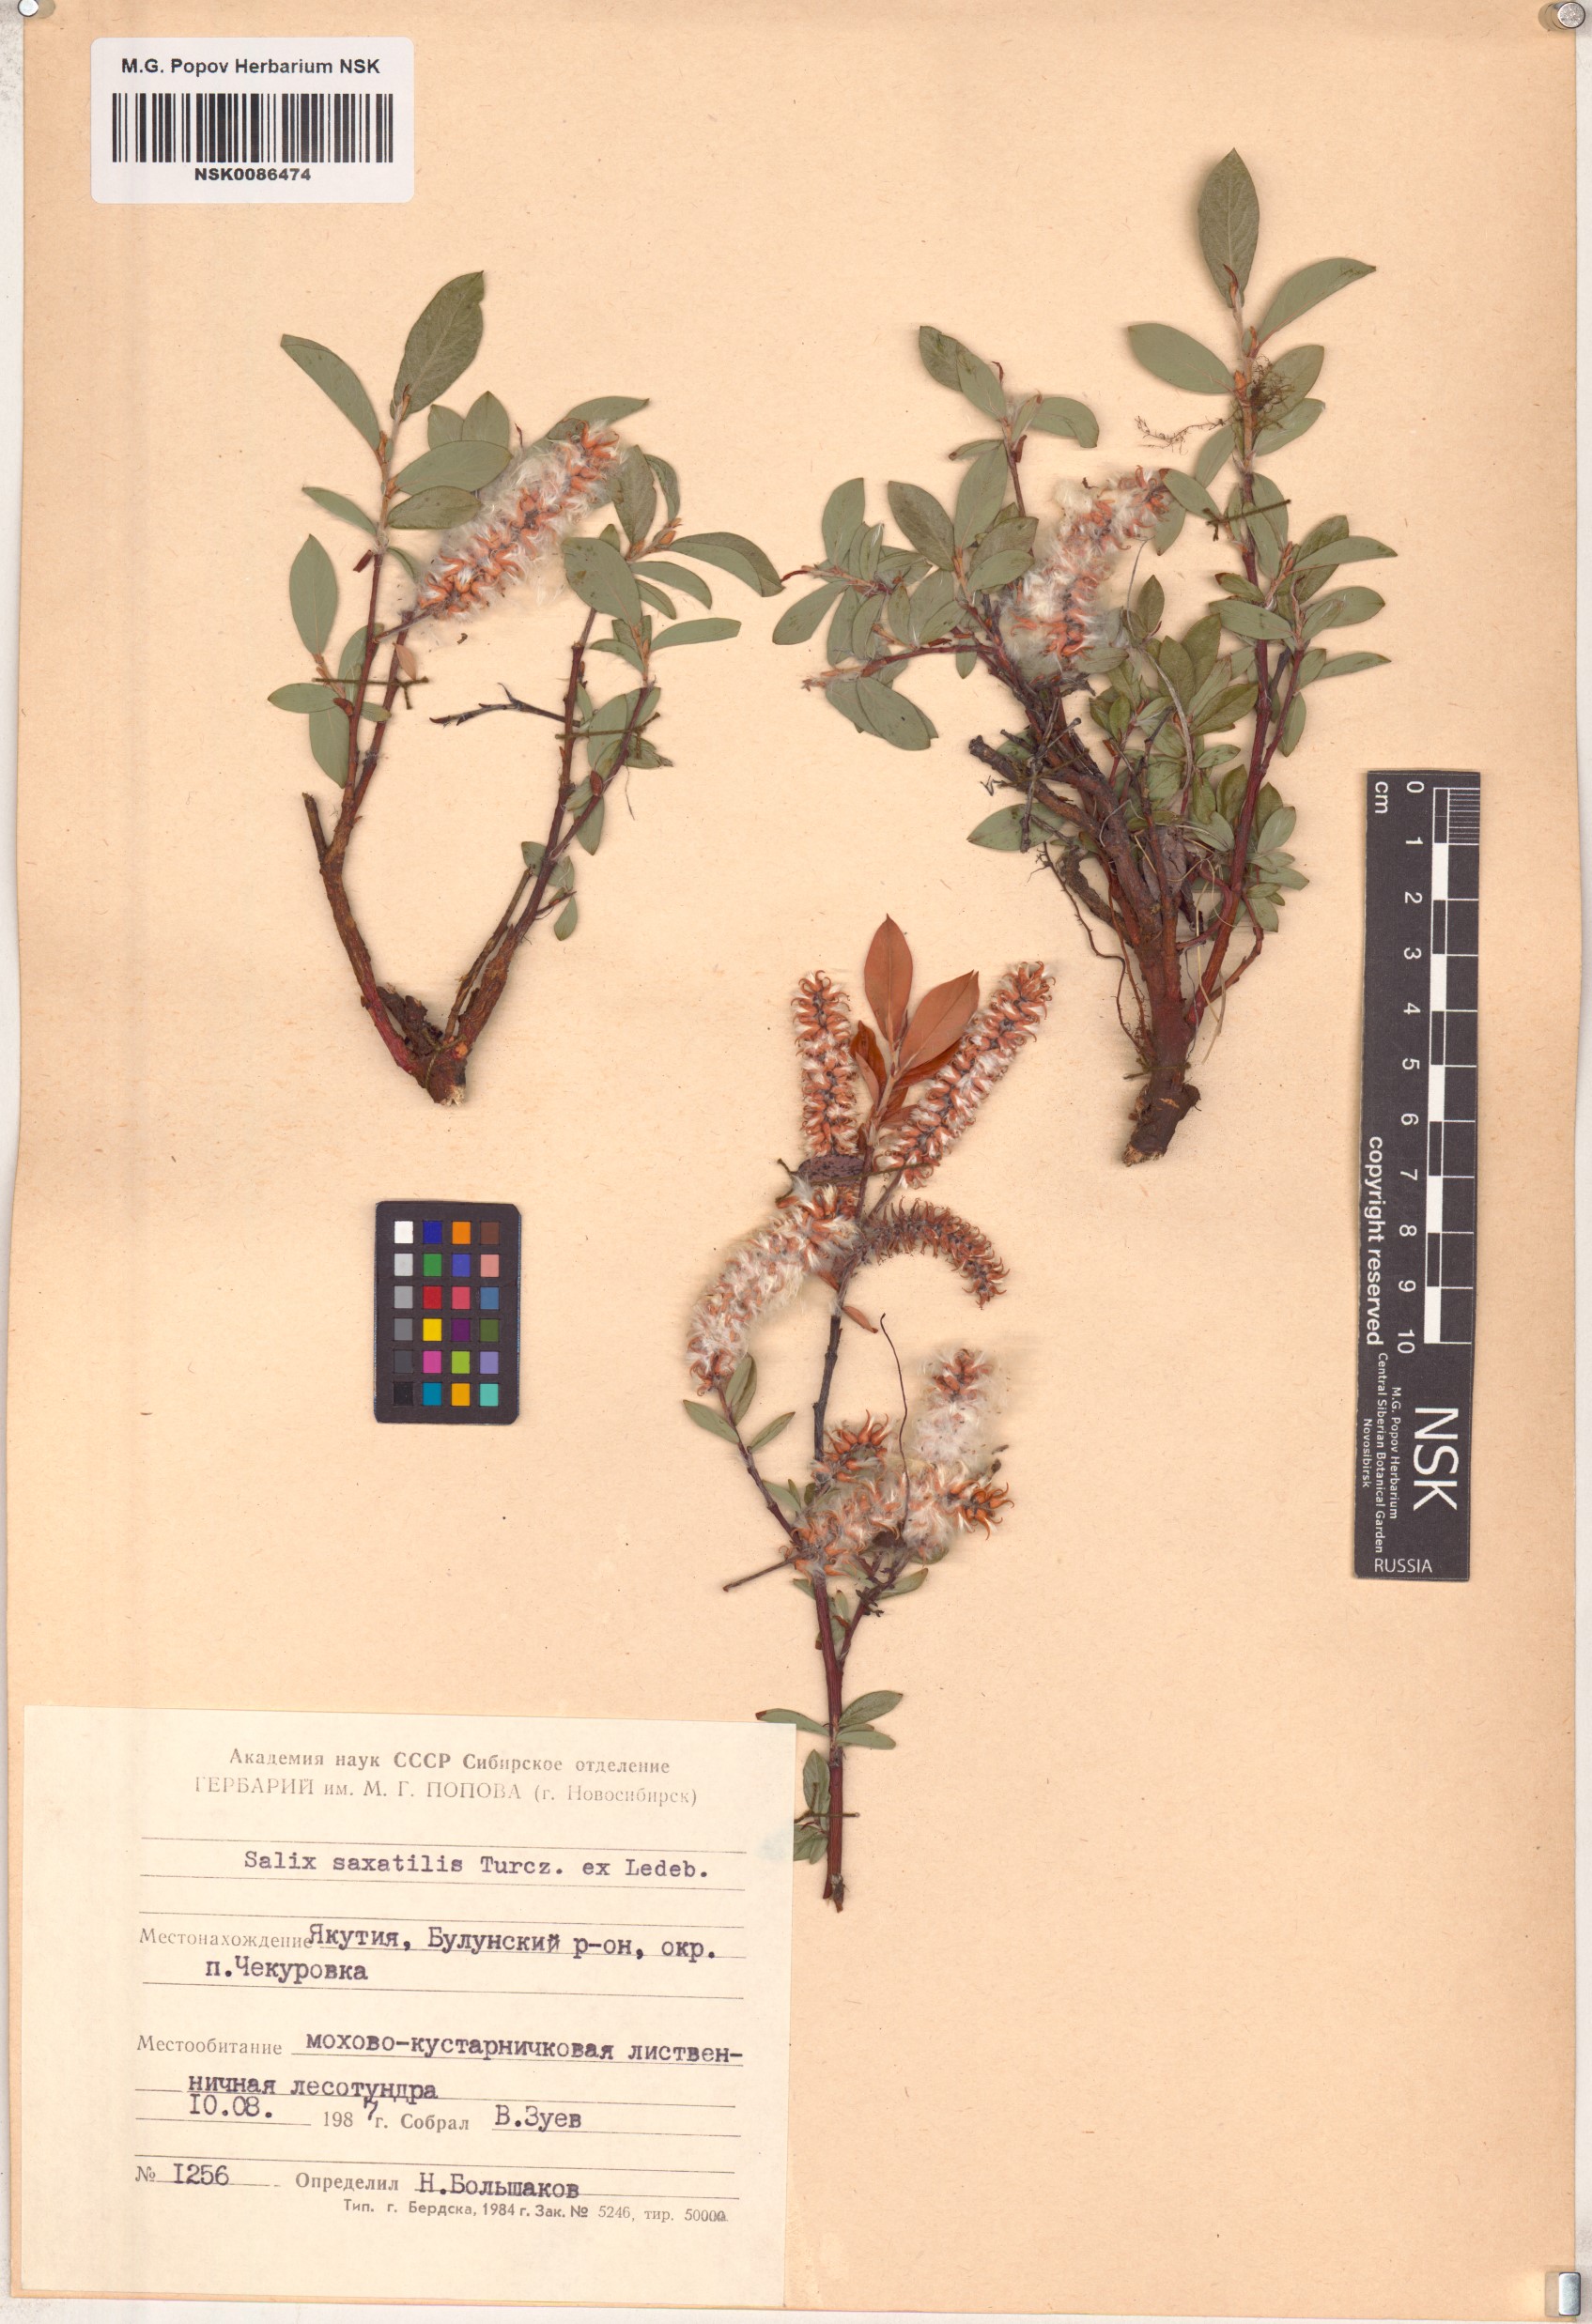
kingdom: Plantae
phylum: Tracheophyta
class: Magnoliopsida
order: Malpighiales
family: Salicaceae
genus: Salix
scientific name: Salix saxatilis
